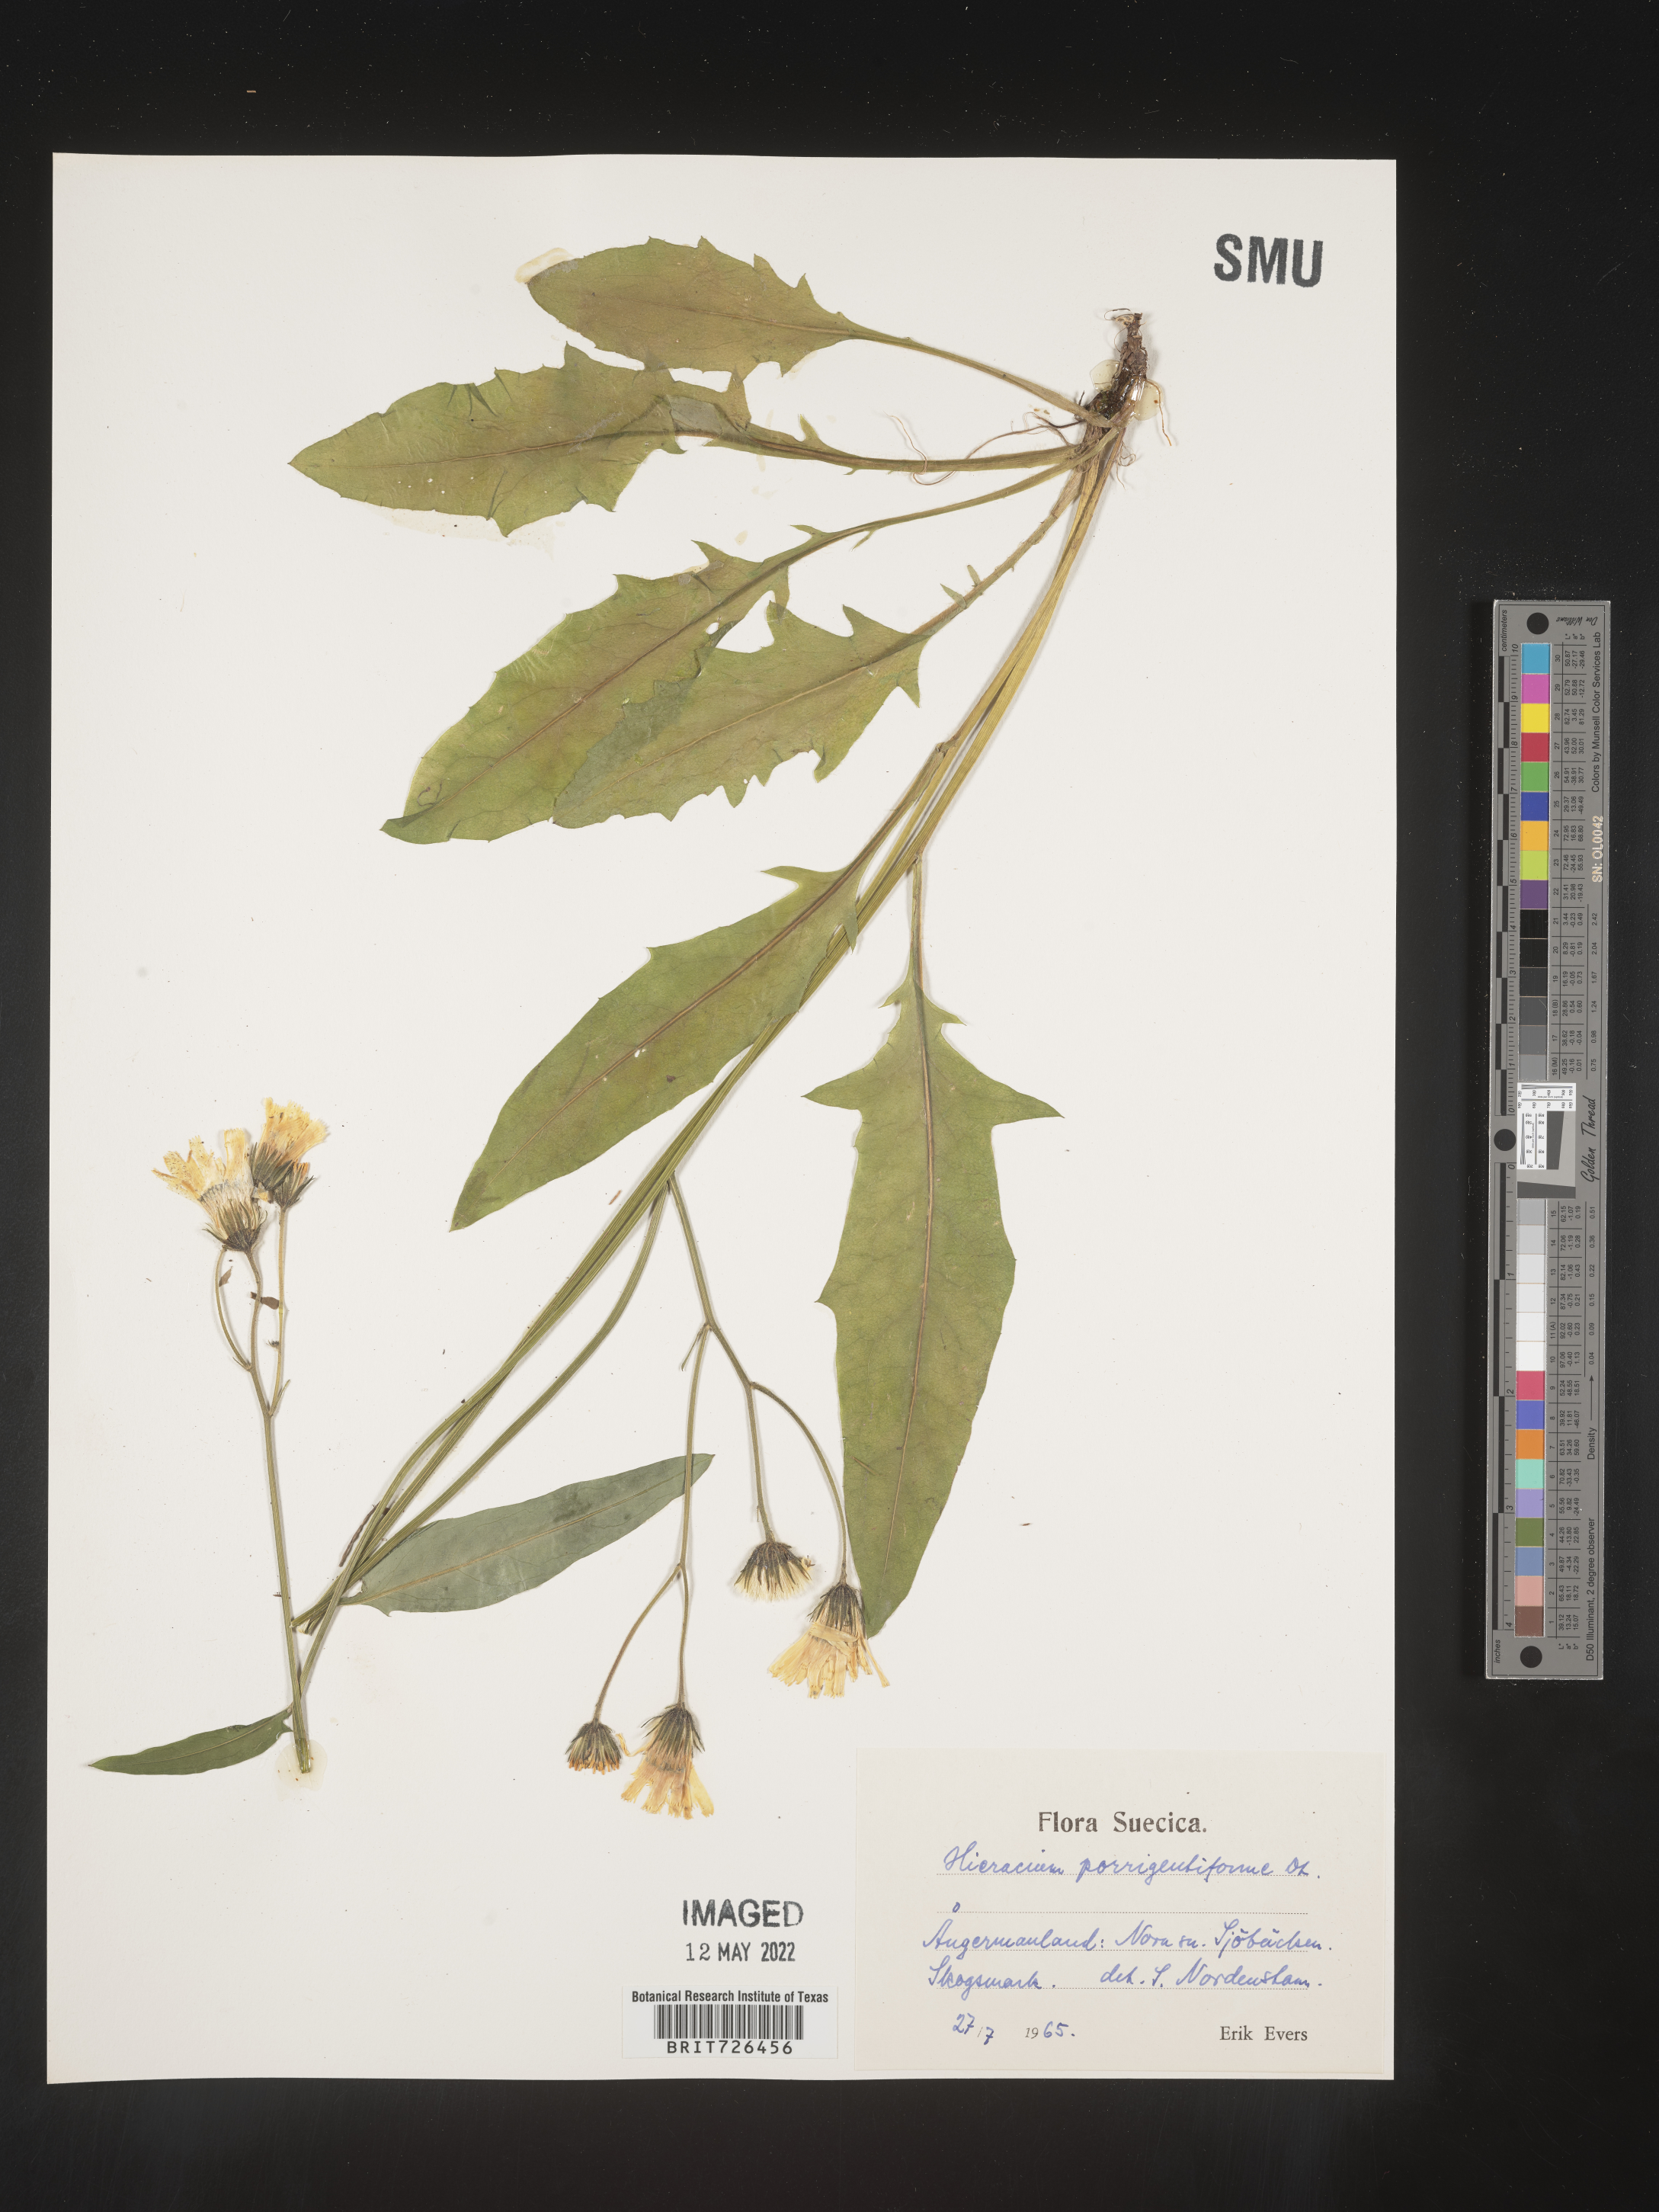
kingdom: Plantae
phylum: Tracheophyta
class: Magnoliopsida
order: Asterales
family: Asteraceae
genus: Hieracium
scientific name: Hieracium
